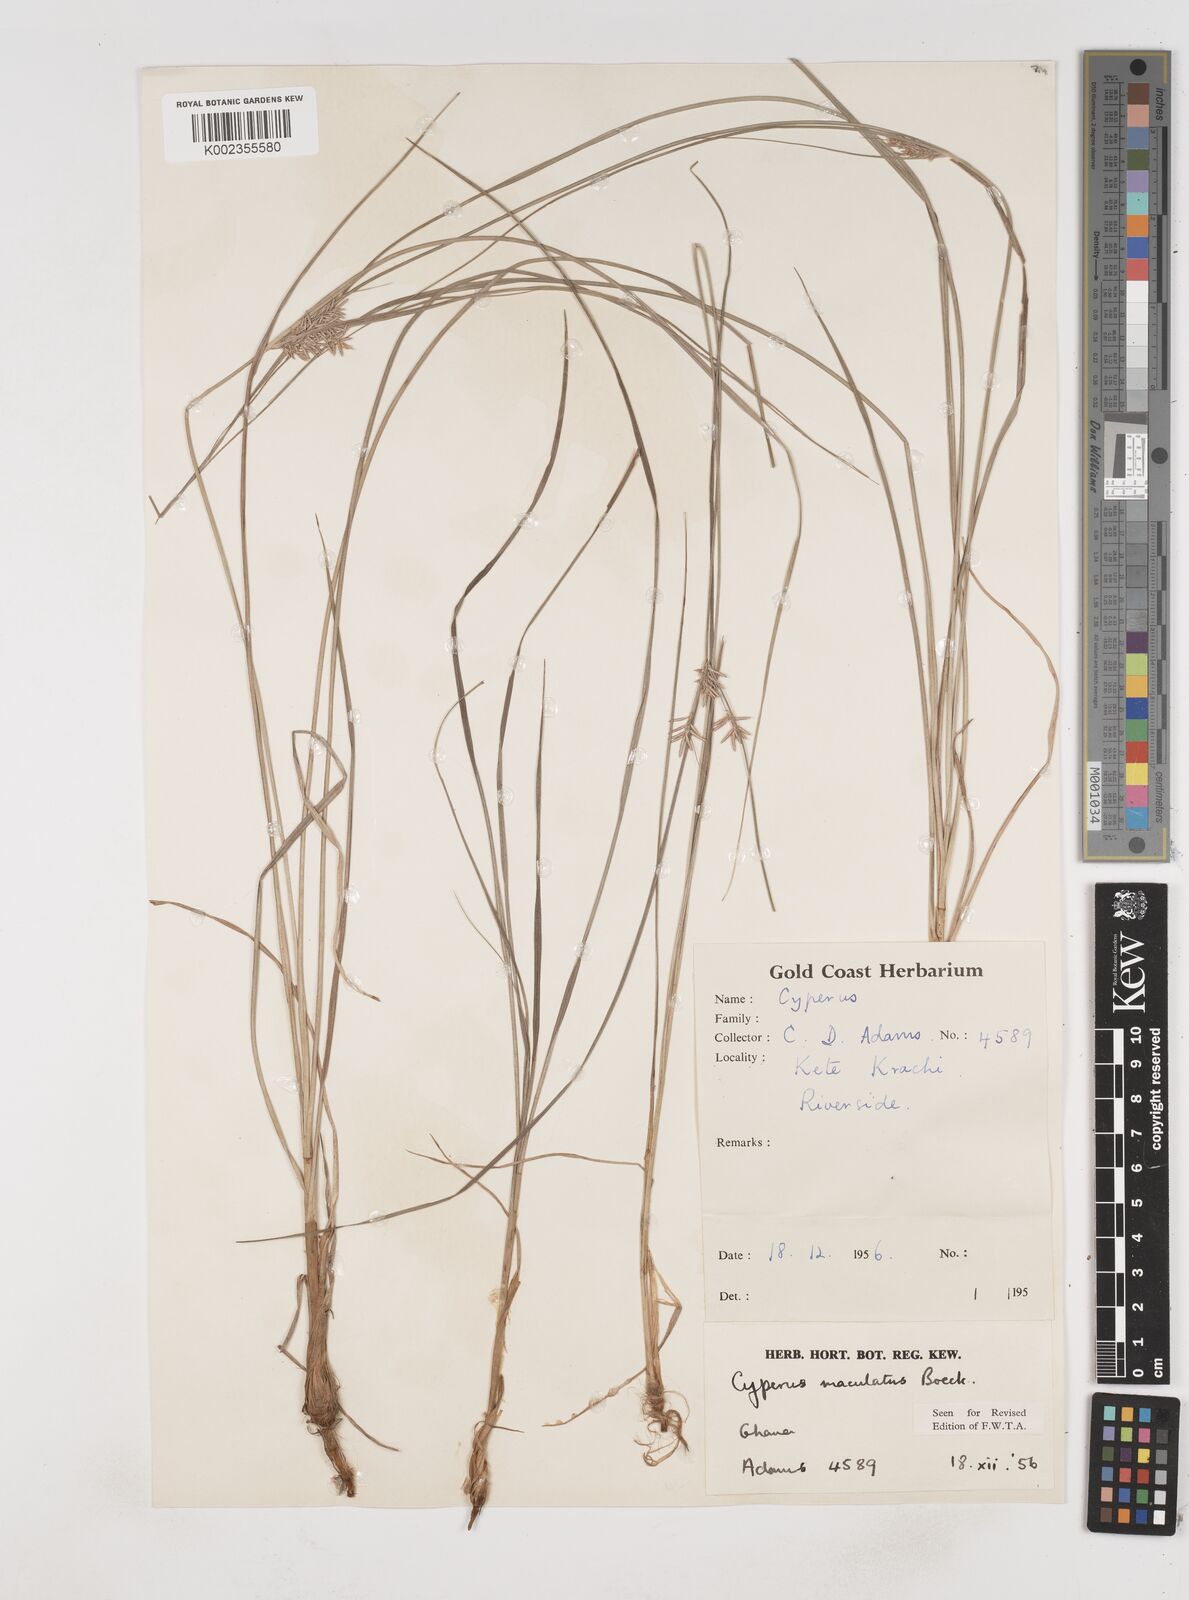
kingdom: Plantae
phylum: Tracheophyta
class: Liliopsida
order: Poales
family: Cyperaceae
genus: Cyperus
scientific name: Cyperus maculatus
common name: Maculated sedge
